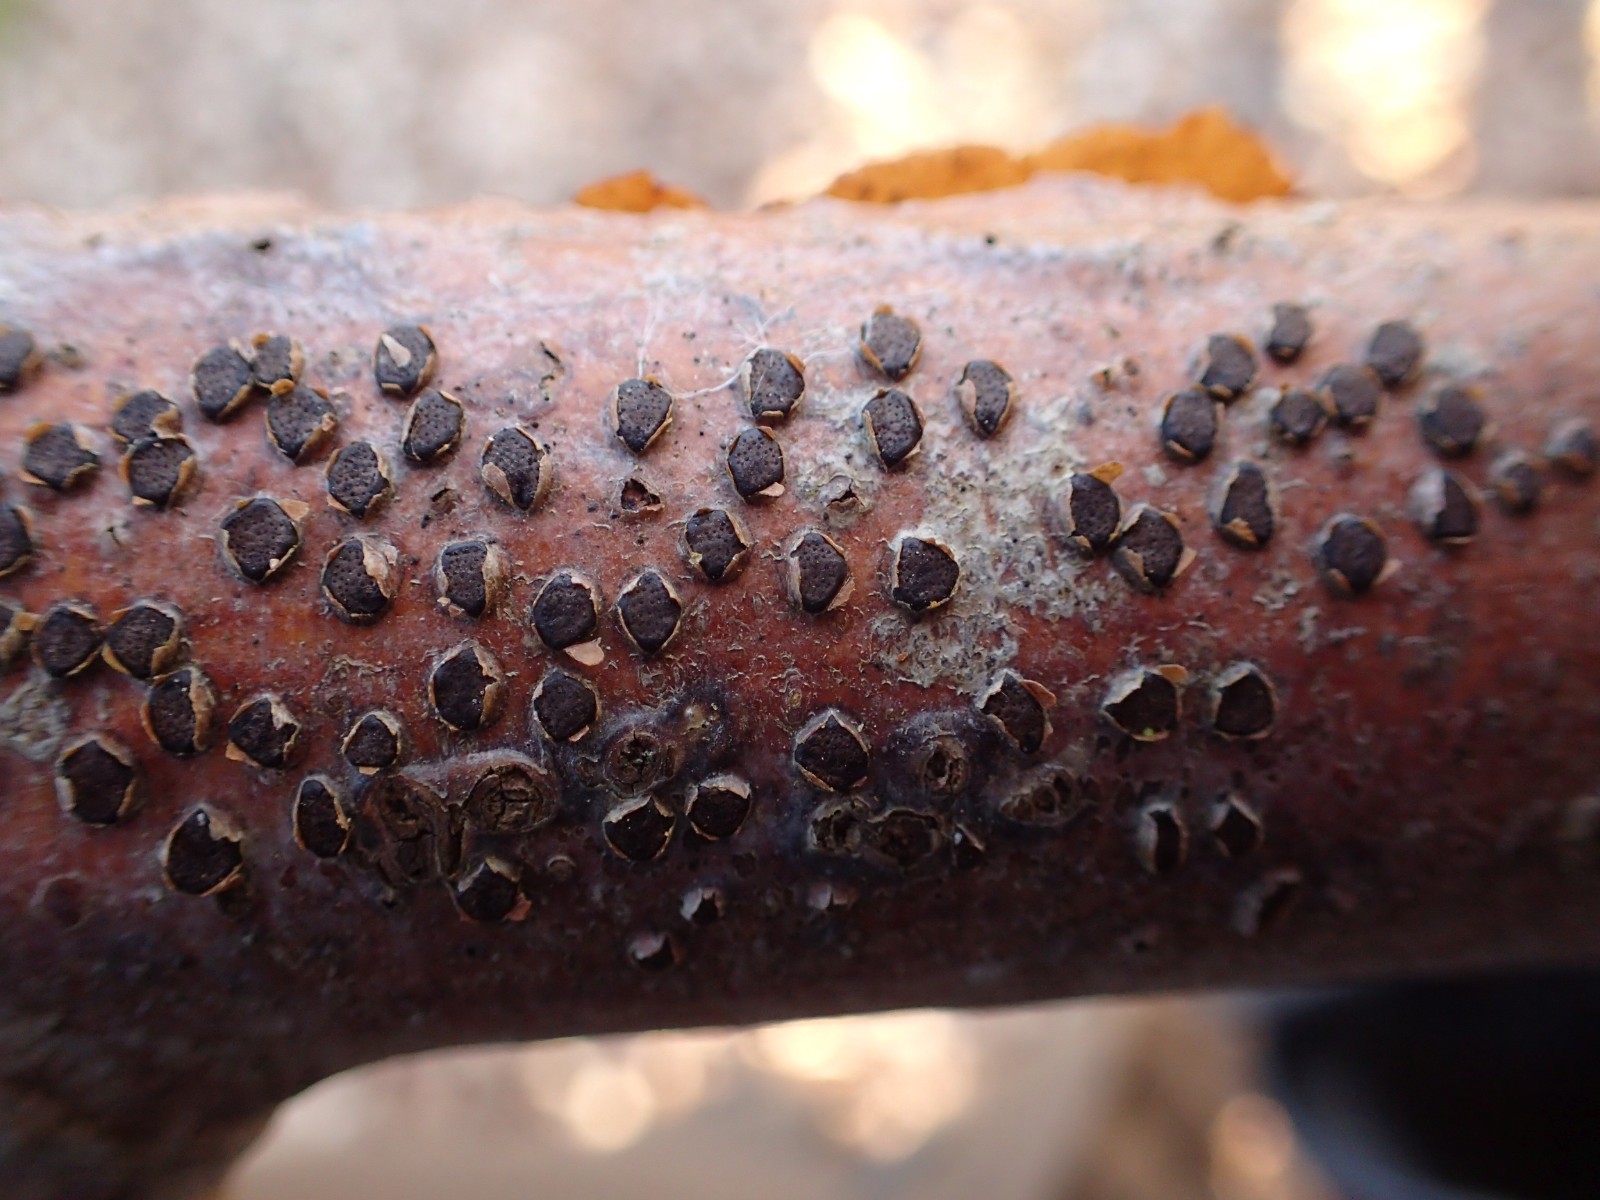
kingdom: Fungi
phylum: Ascomycota
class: Sordariomycetes
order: Xylariales
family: Diatrypaceae
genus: Diatrype
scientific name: Diatrype disciformis
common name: kant-kulskorpe
